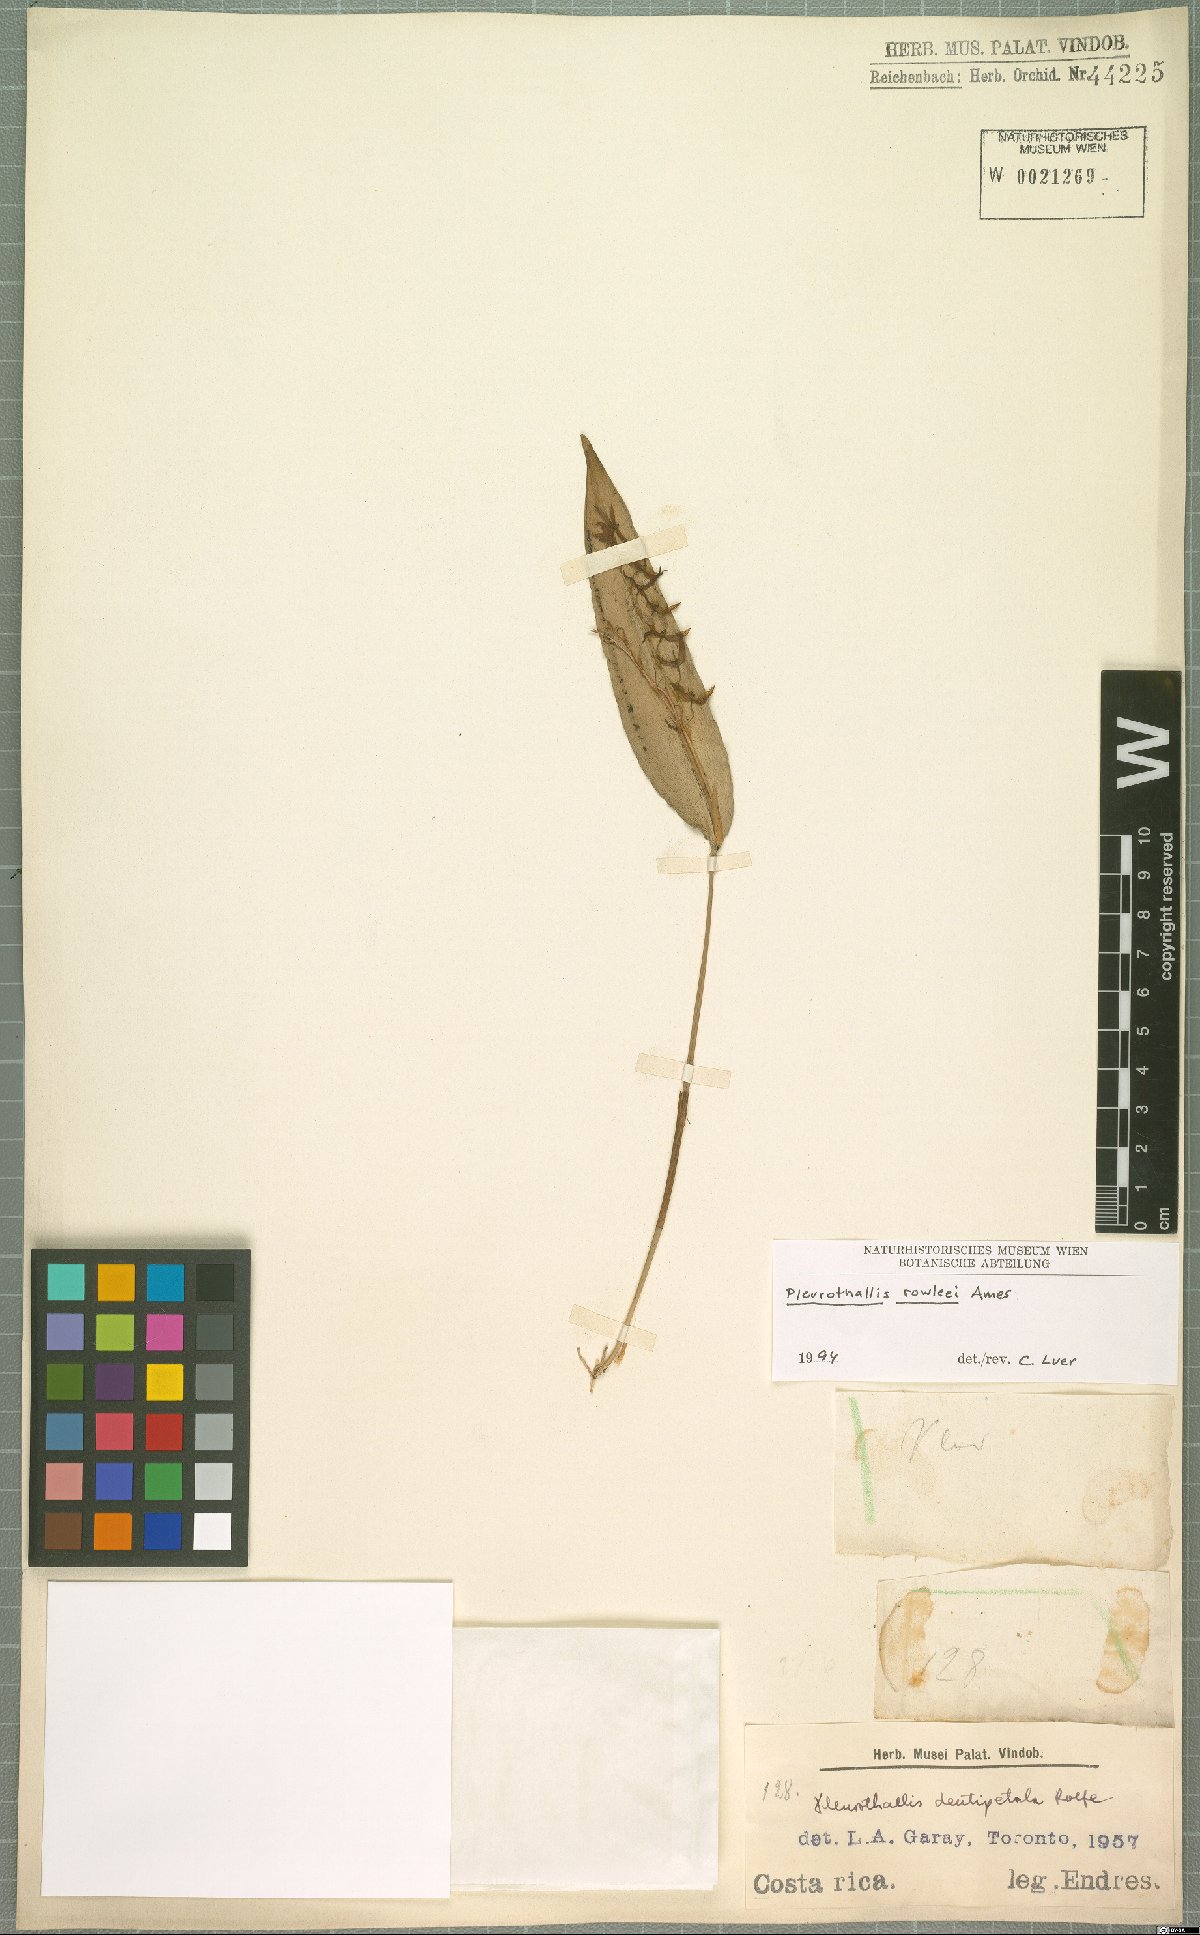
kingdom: Plantae
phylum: Tracheophyta
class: Liliopsida
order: Asparagales
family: Orchidaceae
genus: Pleurothallis
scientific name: Pleurothallis rowleei
